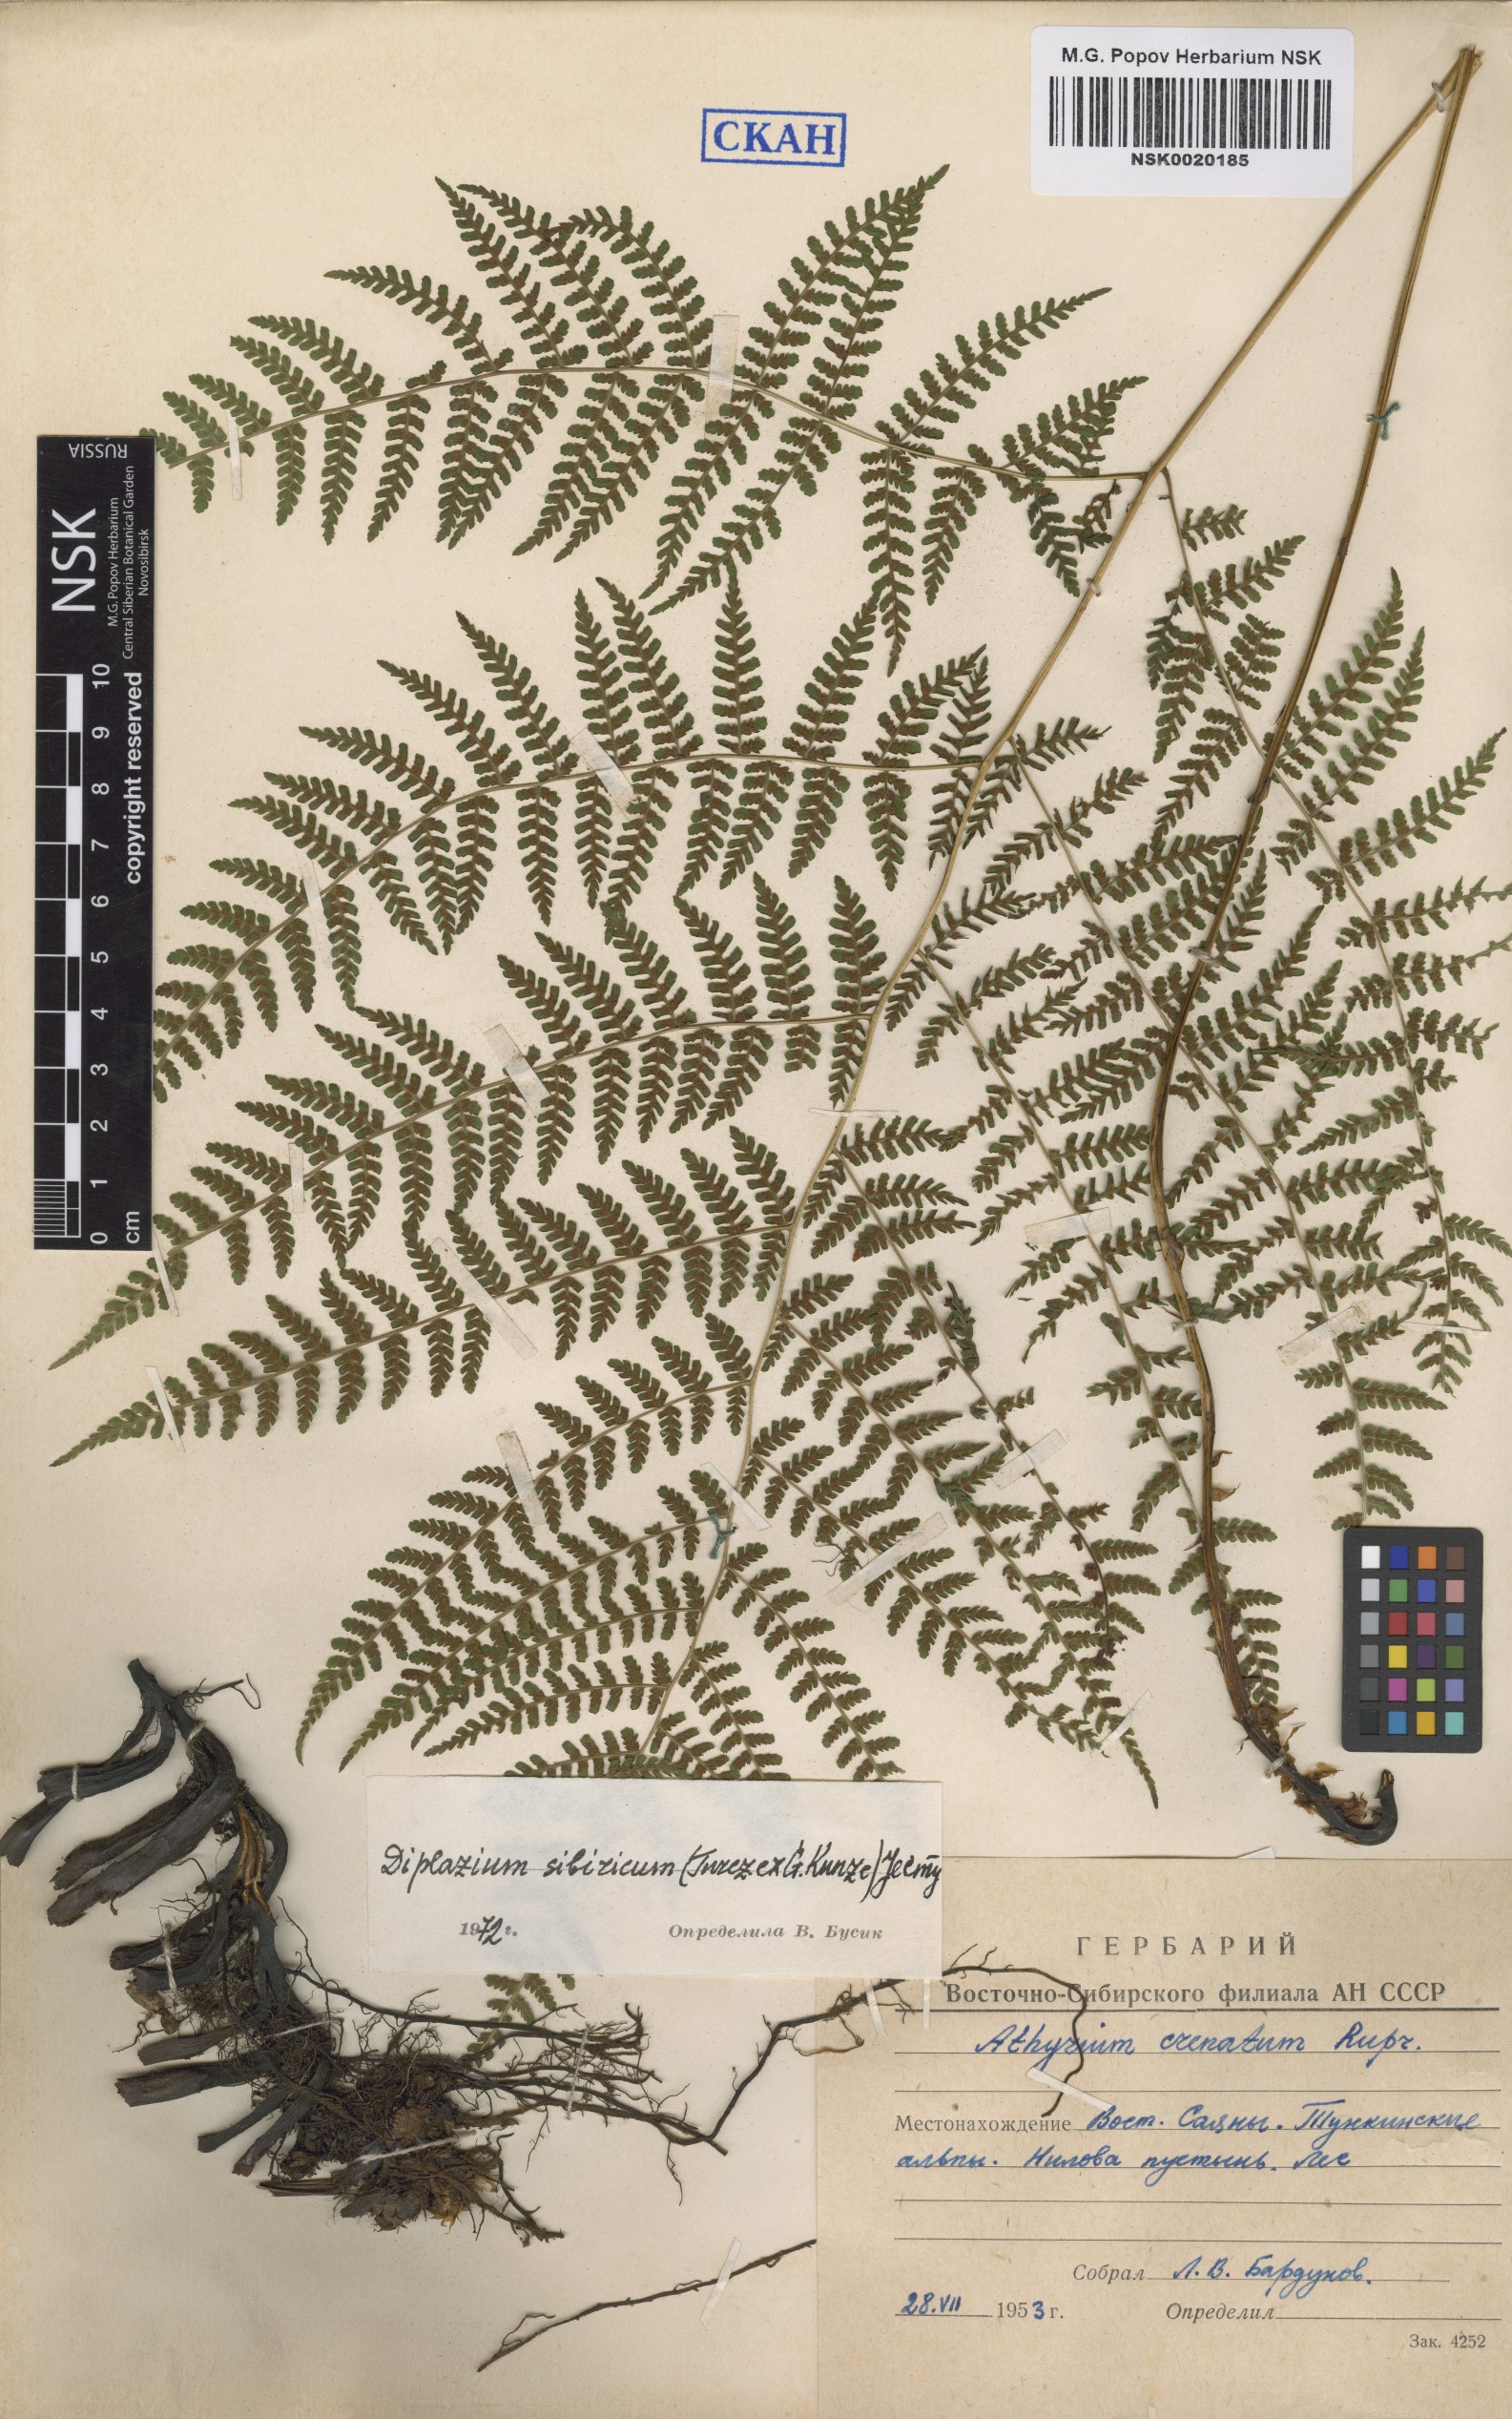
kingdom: Plantae
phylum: Tracheophyta
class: Polypodiopsida
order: Polypodiales
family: Athyriaceae
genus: Diplazium
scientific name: Diplazium sibiricum
